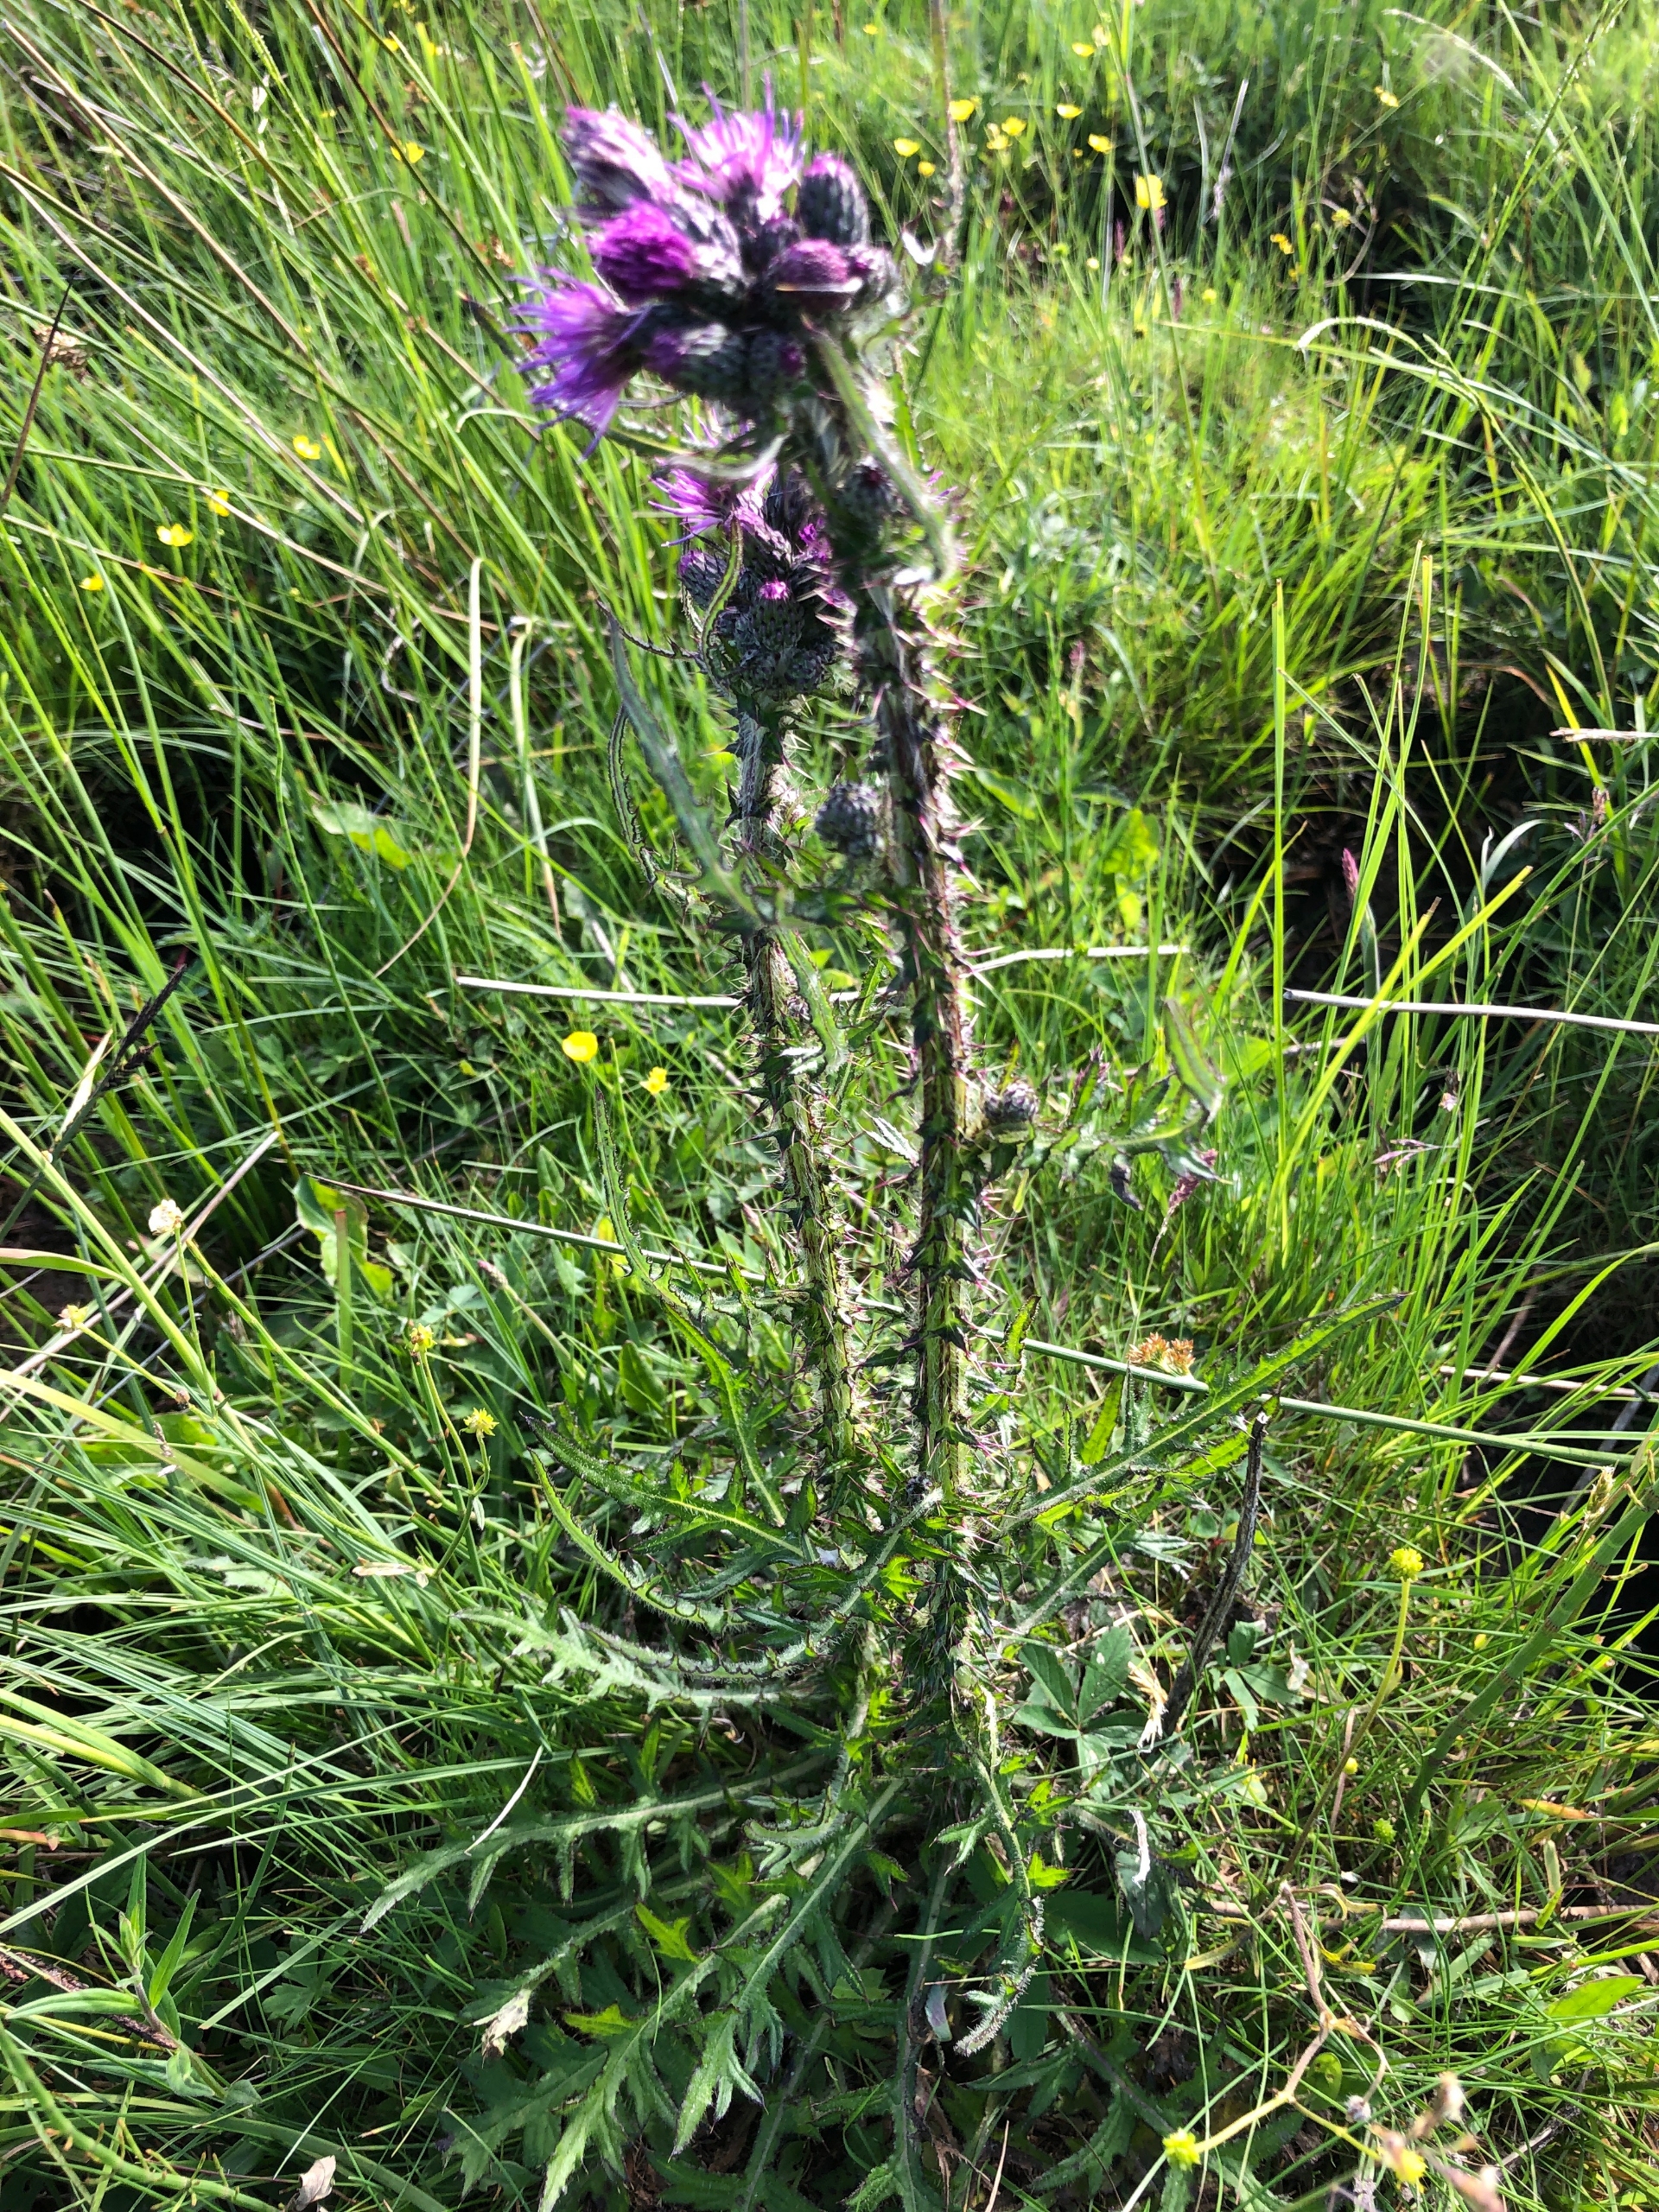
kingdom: Plantae
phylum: Tracheophyta
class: Magnoliopsida
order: Asterales
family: Asteraceae
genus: Cirsium
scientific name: Cirsium palustre
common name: Kær-tidsel
